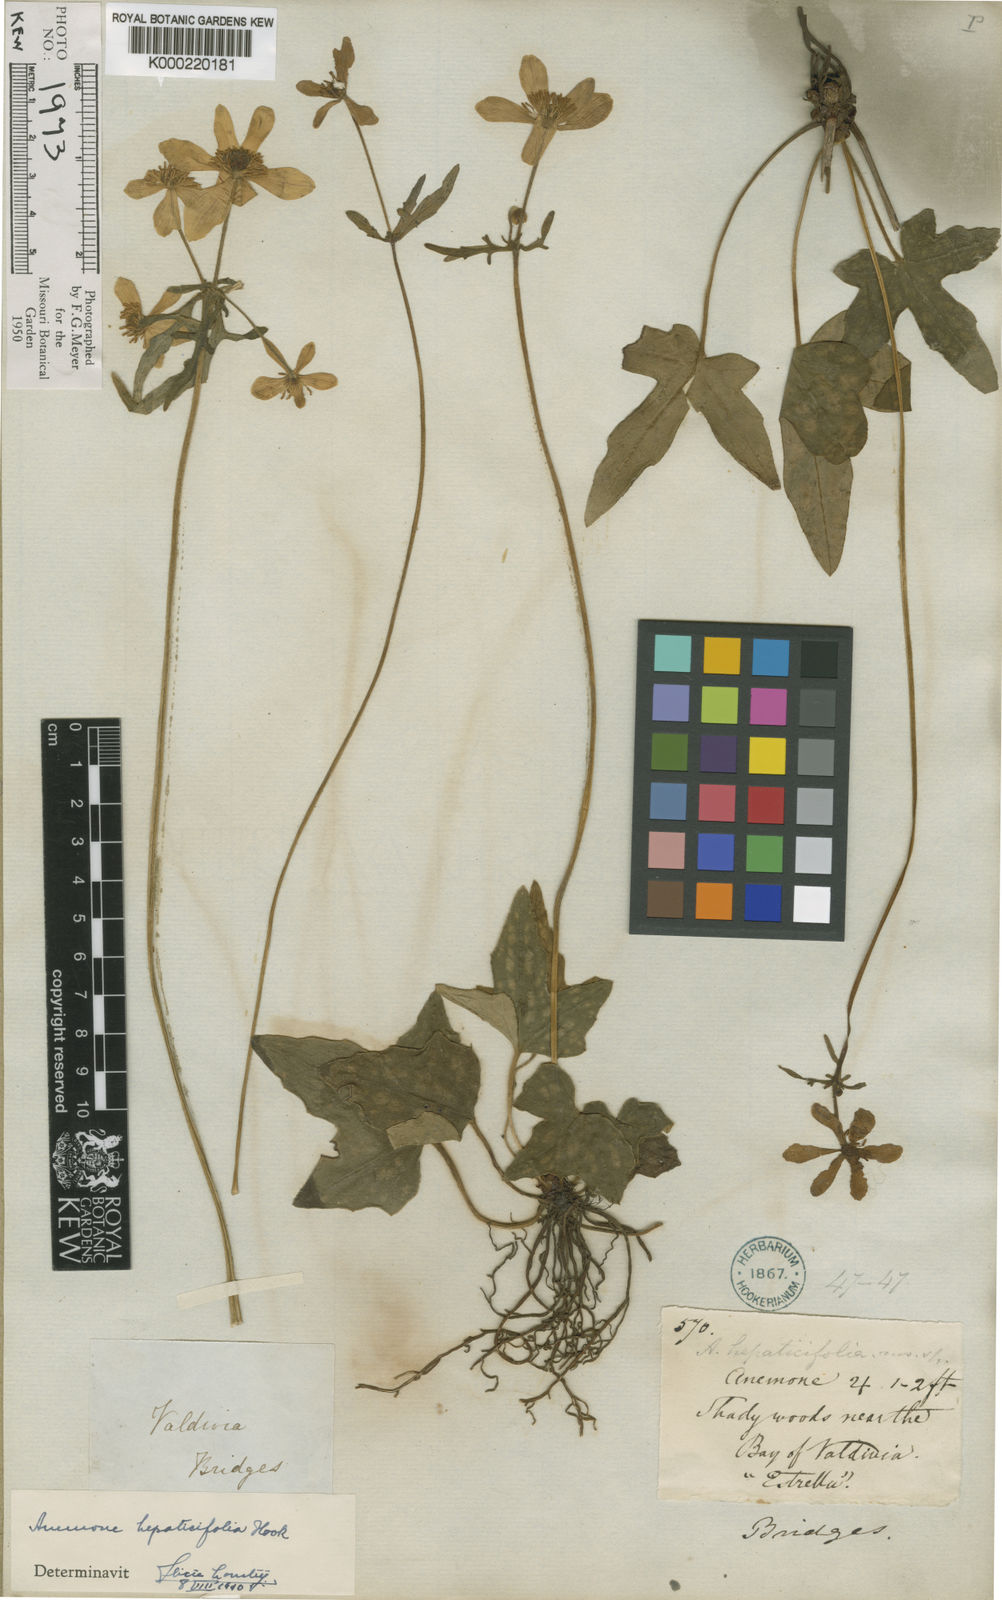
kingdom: Plantae
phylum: Tracheophyta
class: Magnoliopsida
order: Ranunculales
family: Ranunculaceae
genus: Knowltonia
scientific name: Knowltonia hepaticifolia
